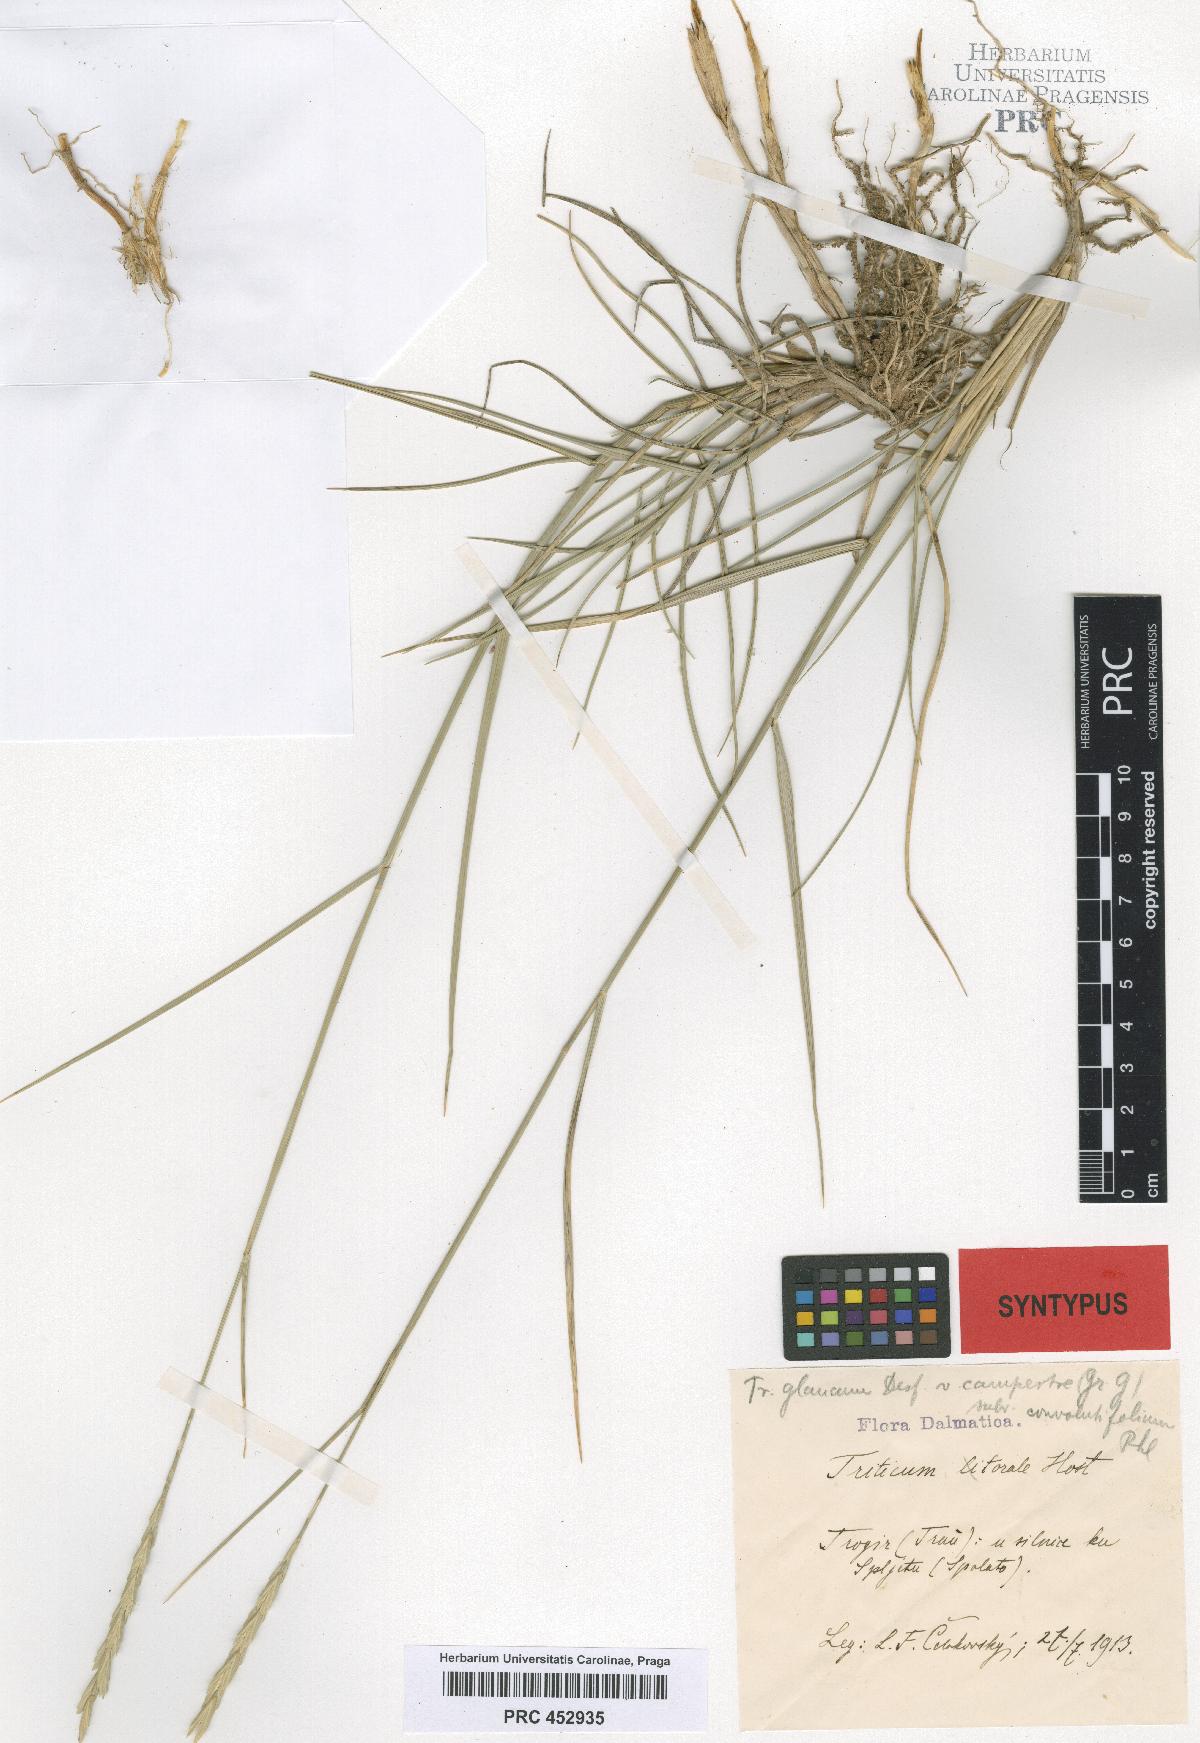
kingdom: Plantae
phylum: Tracheophyta
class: Liliopsida
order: Poales
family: Poaceae
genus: Triticum
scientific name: Triticum glaucum
